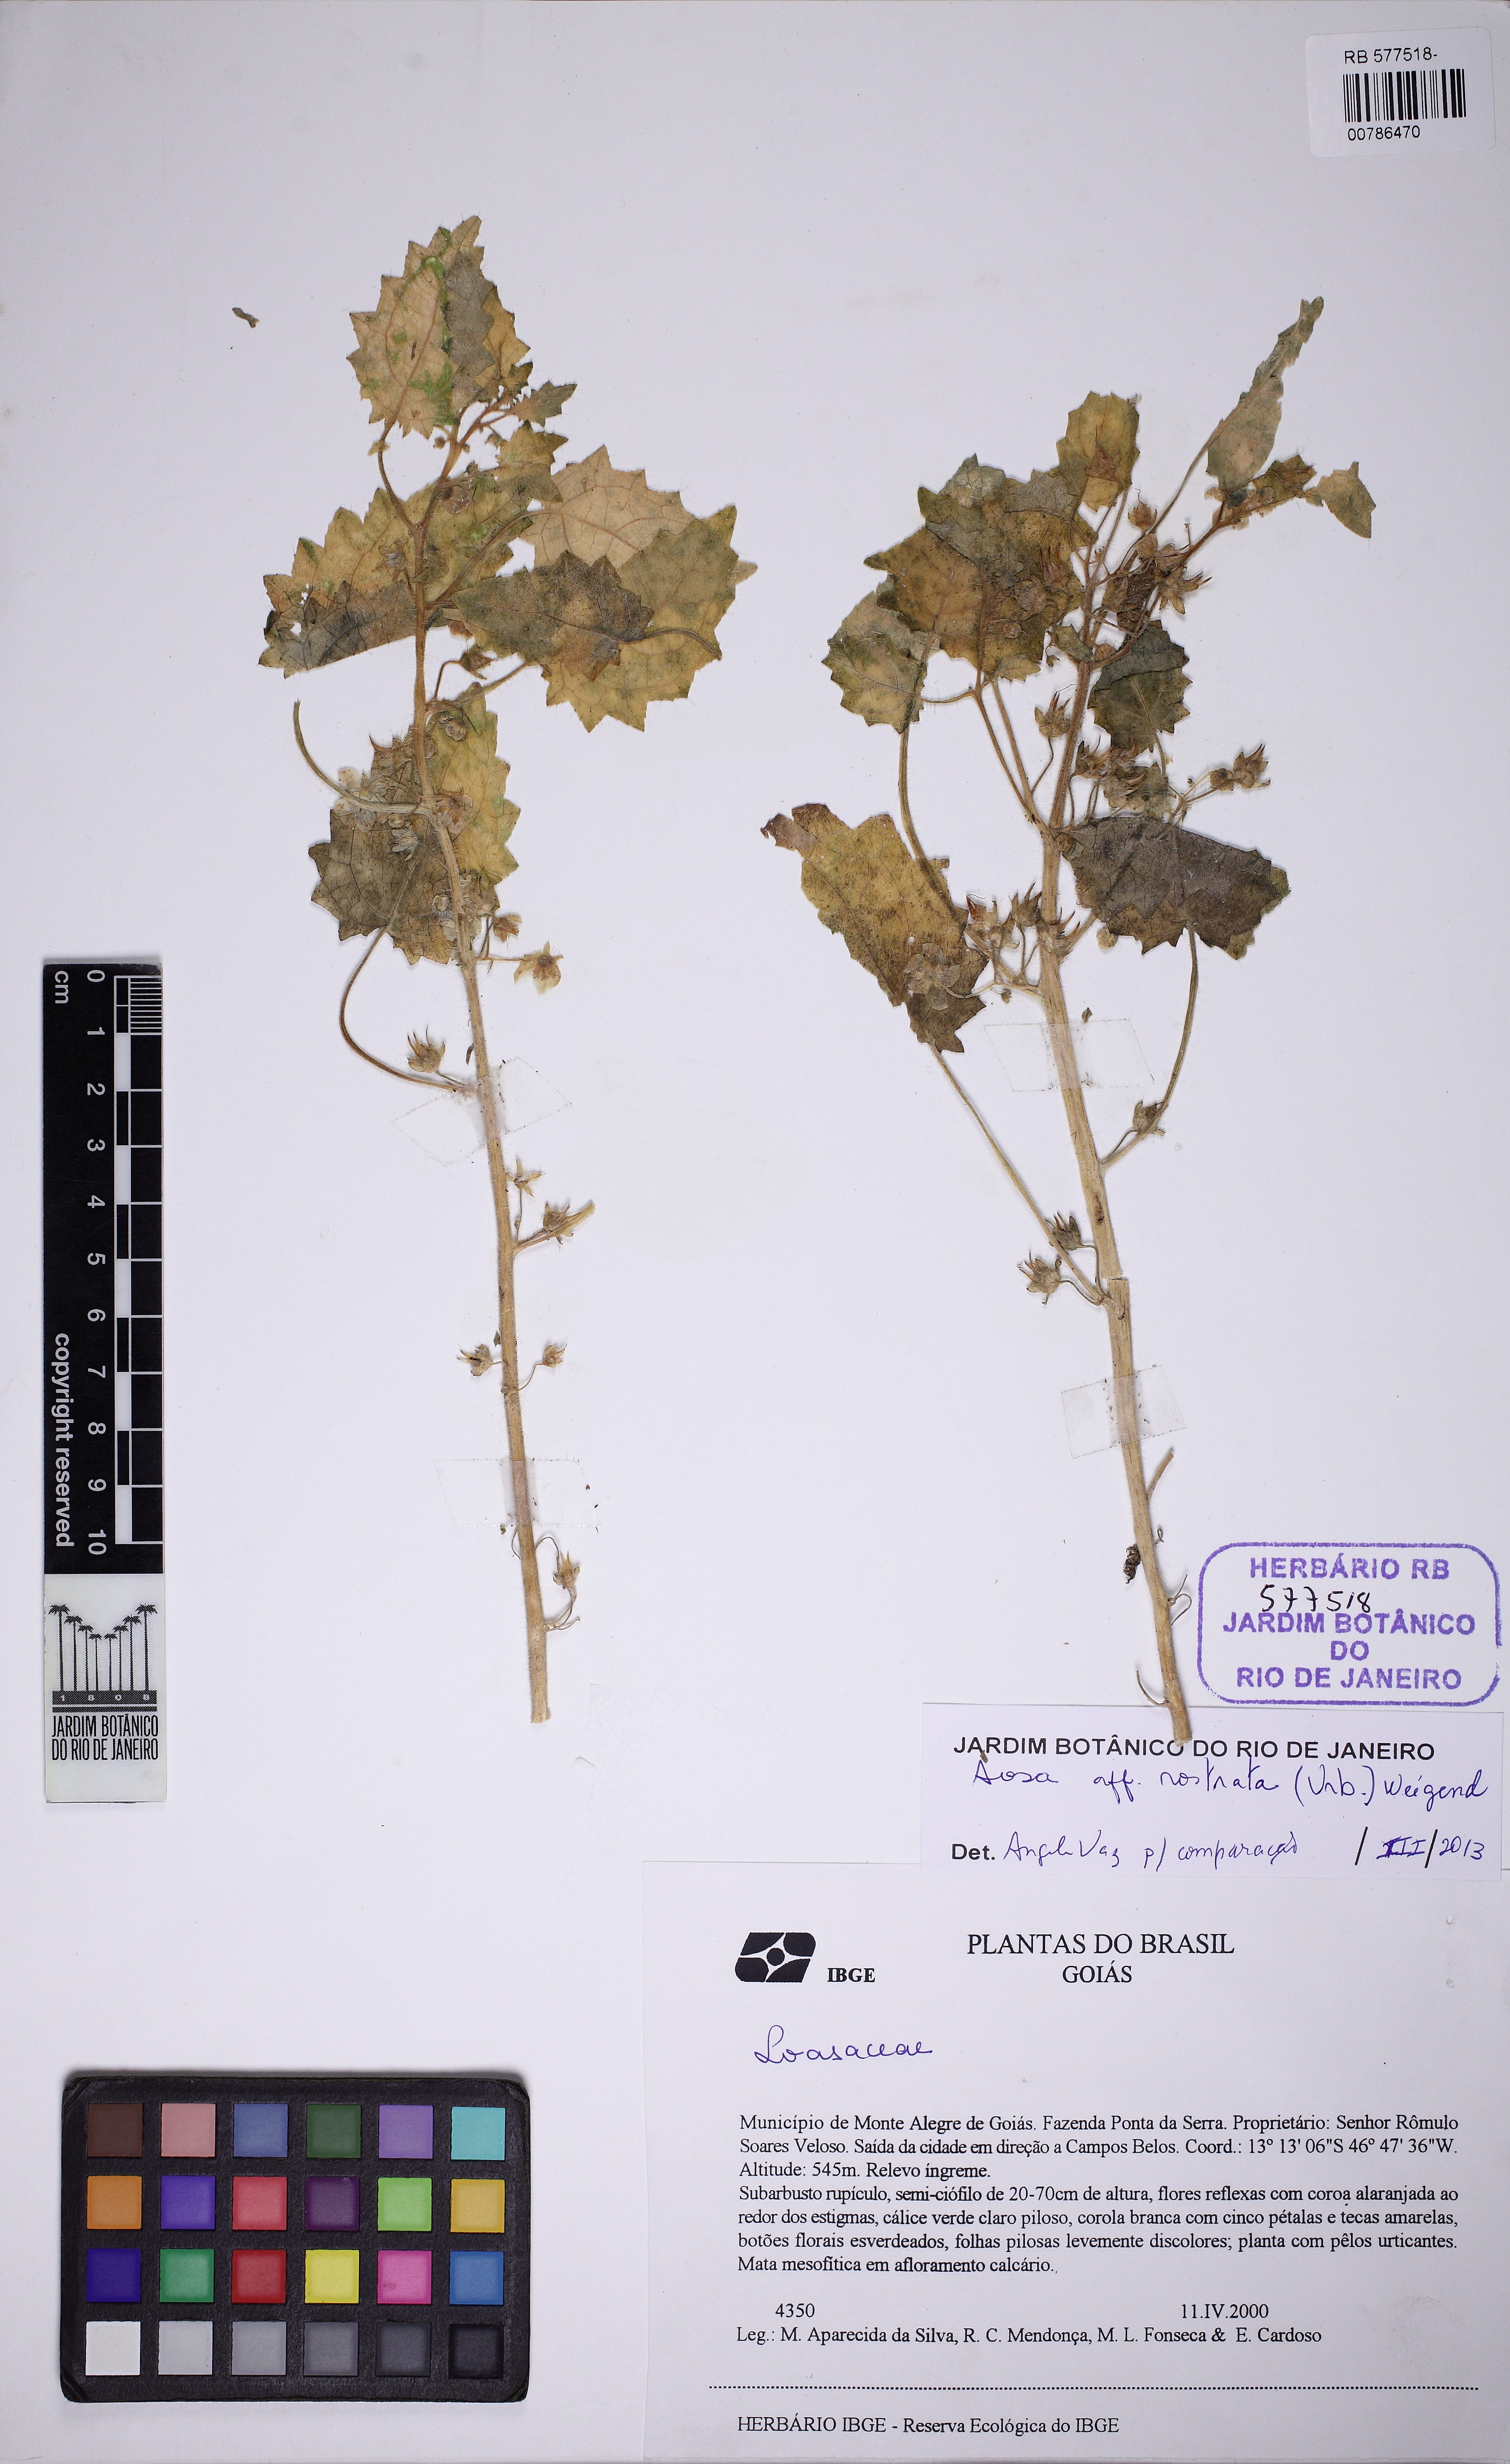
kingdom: Plantae
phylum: Tracheophyta
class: Magnoliopsida
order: Cornales
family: Loasaceae
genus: Aosa
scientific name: Aosa rostrata
